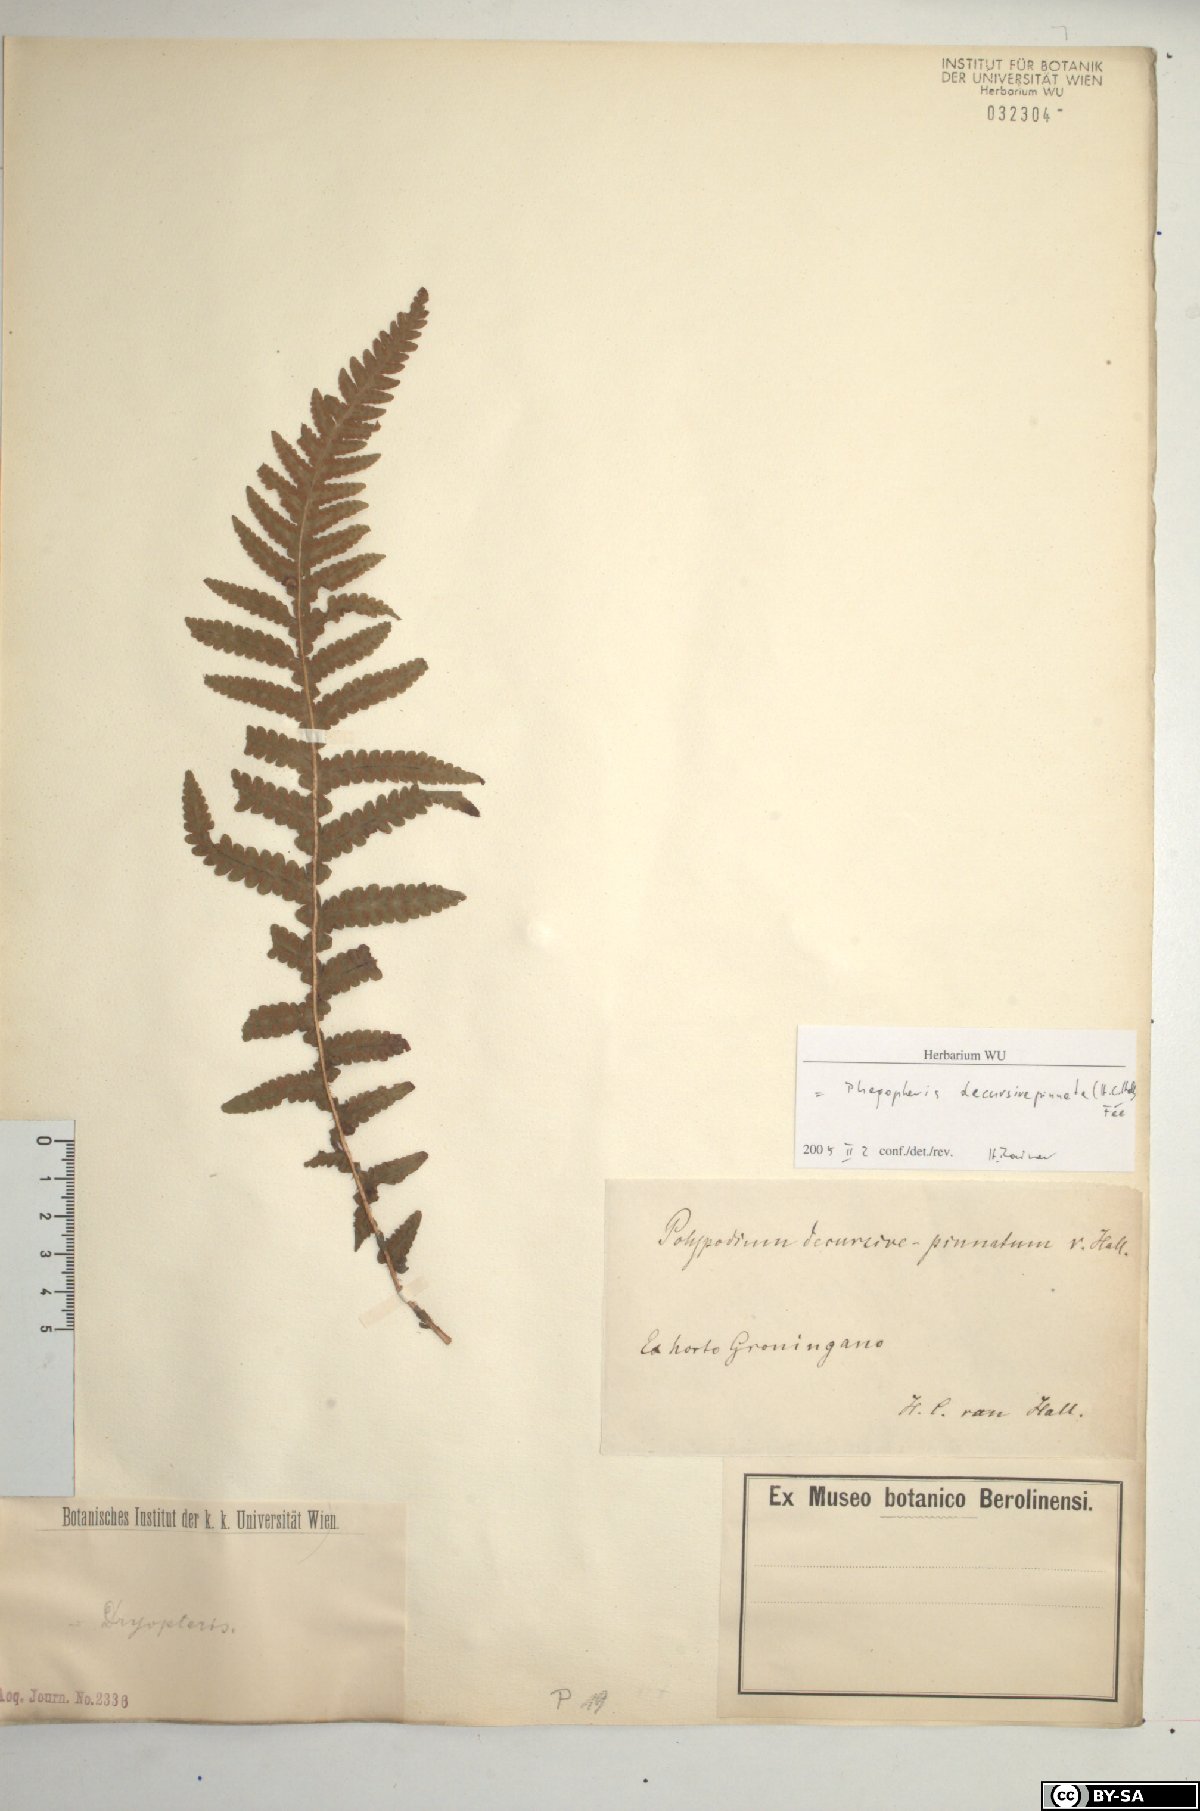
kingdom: Plantae
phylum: Tracheophyta
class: Polypodiopsida
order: Polypodiales
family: Thelypteridaceae
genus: Phegopteris
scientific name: Phegopteris decursive-pinnata
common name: Japanese beech fern
